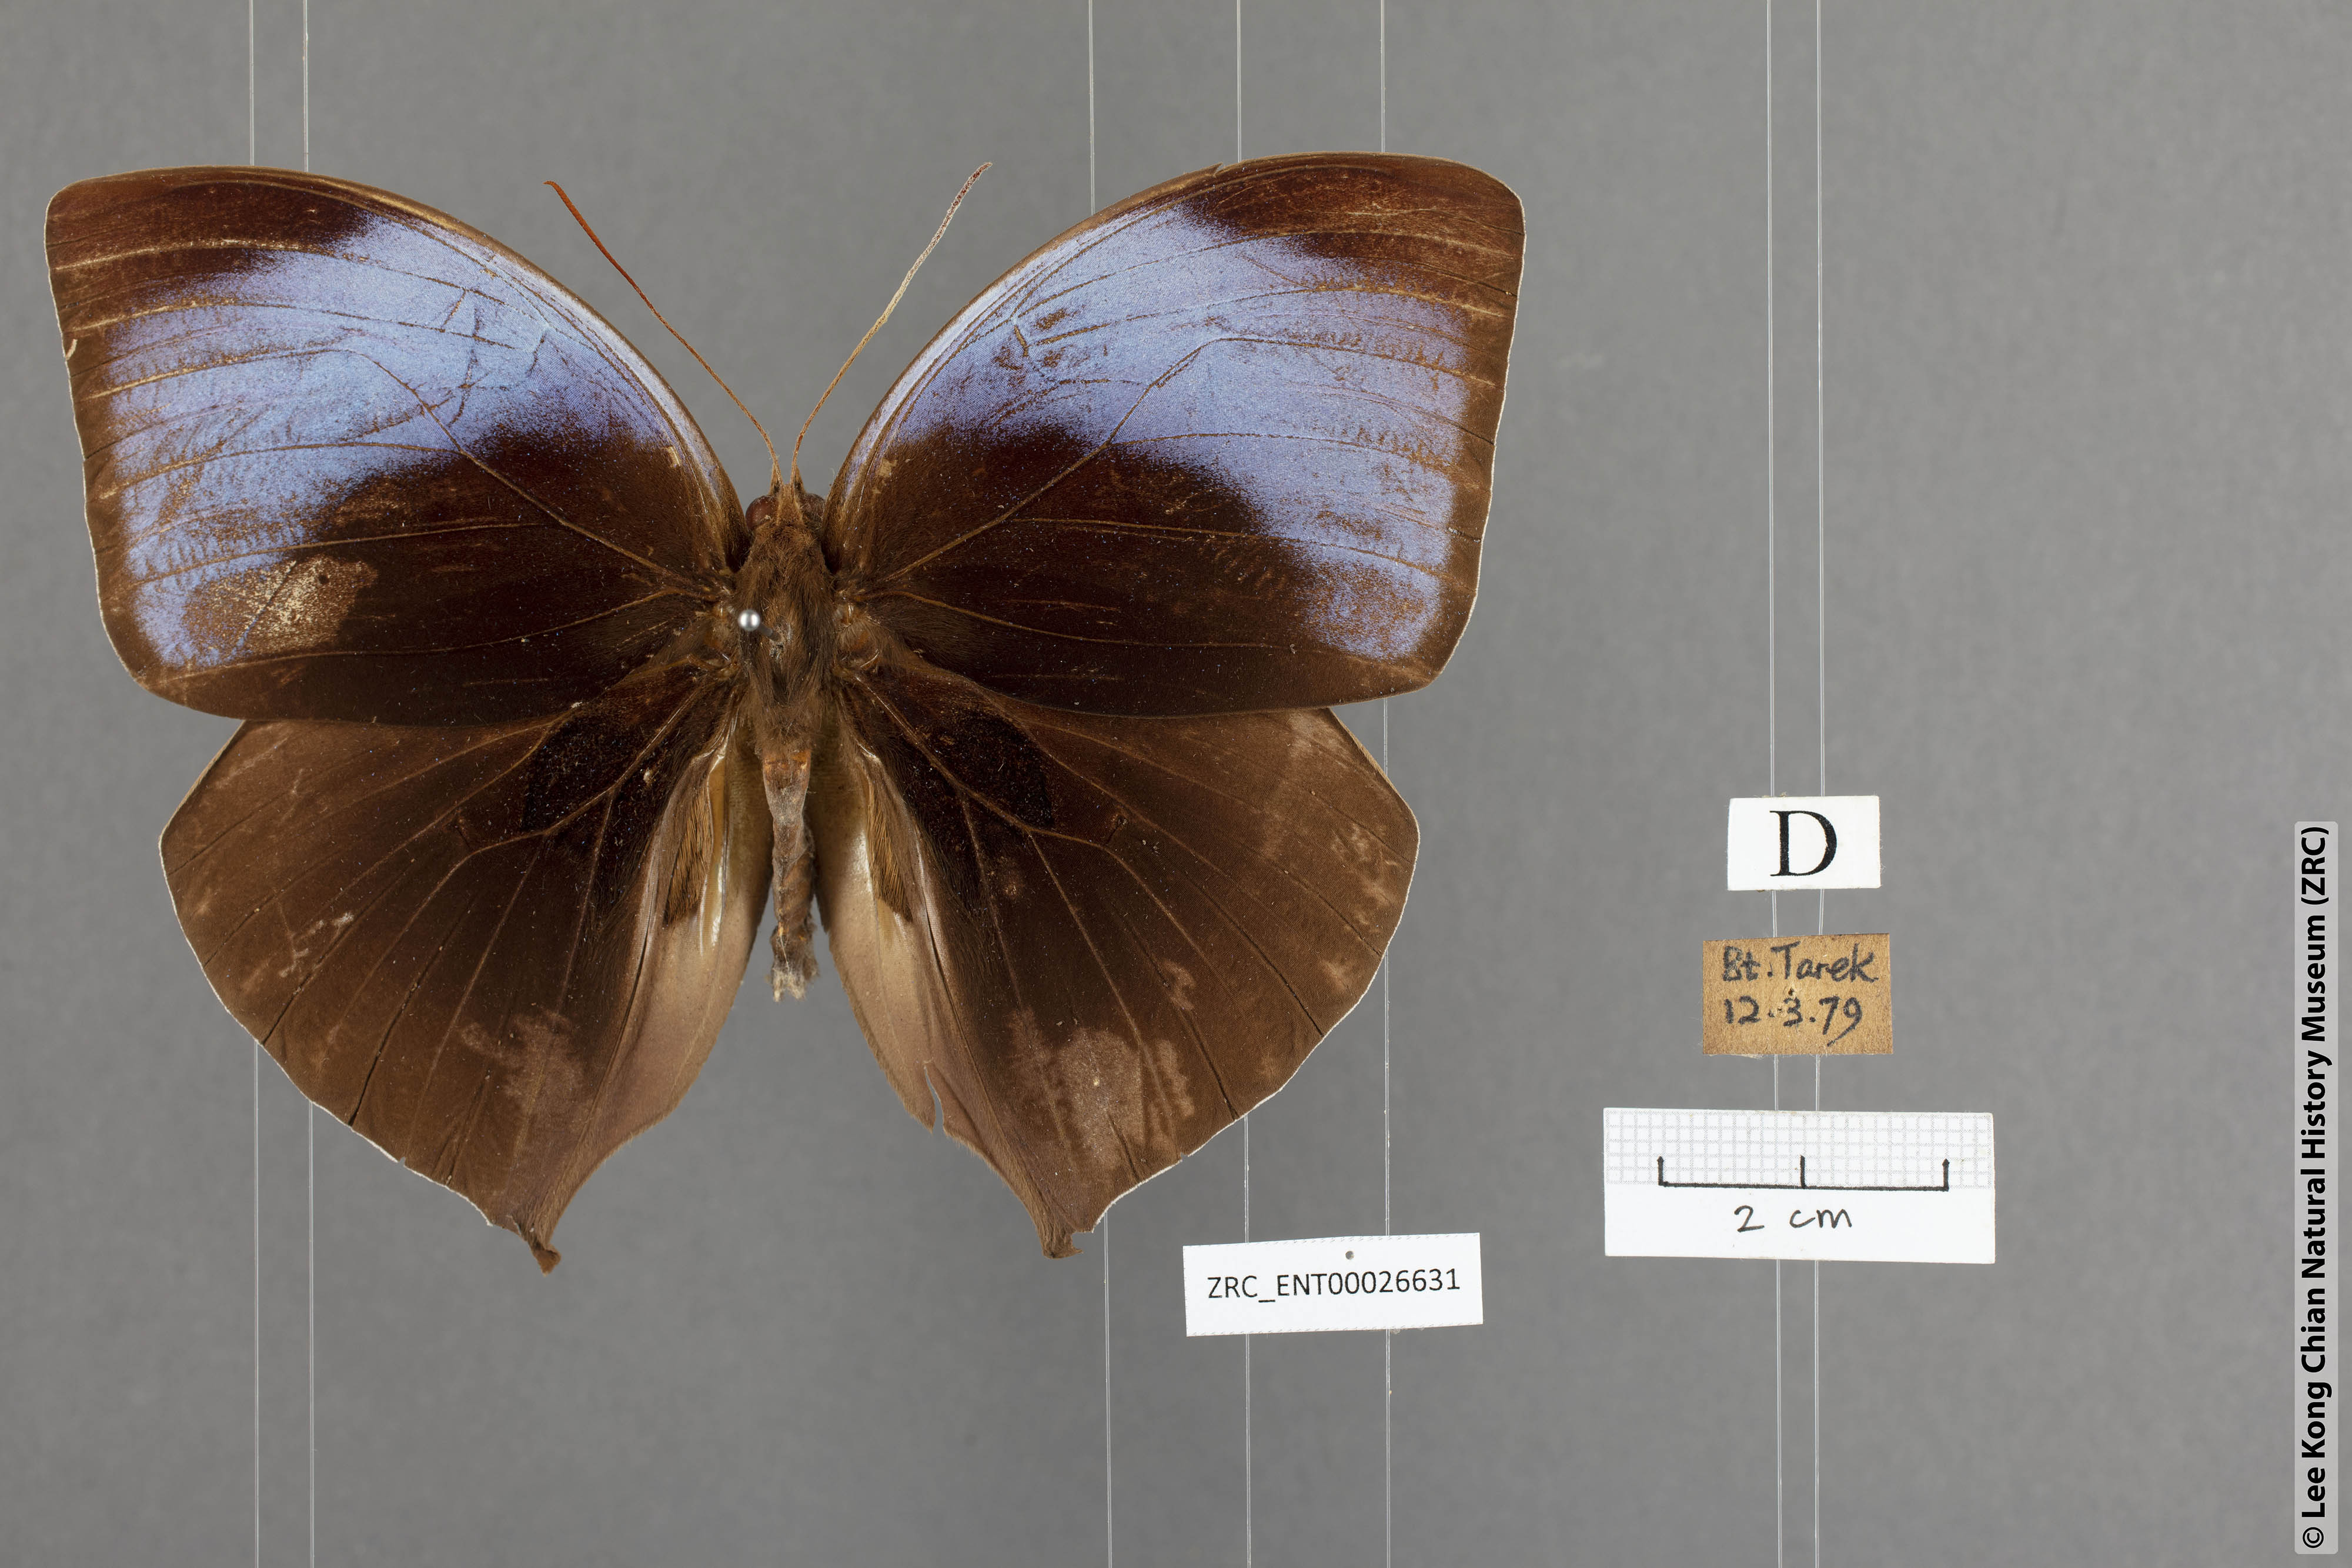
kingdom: Animalia
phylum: Arthropoda
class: Insecta
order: Lepidoptera
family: Nymphalidae
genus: Amathuxidia
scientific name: Amathuxidia amythaon
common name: Koh-i-noor
